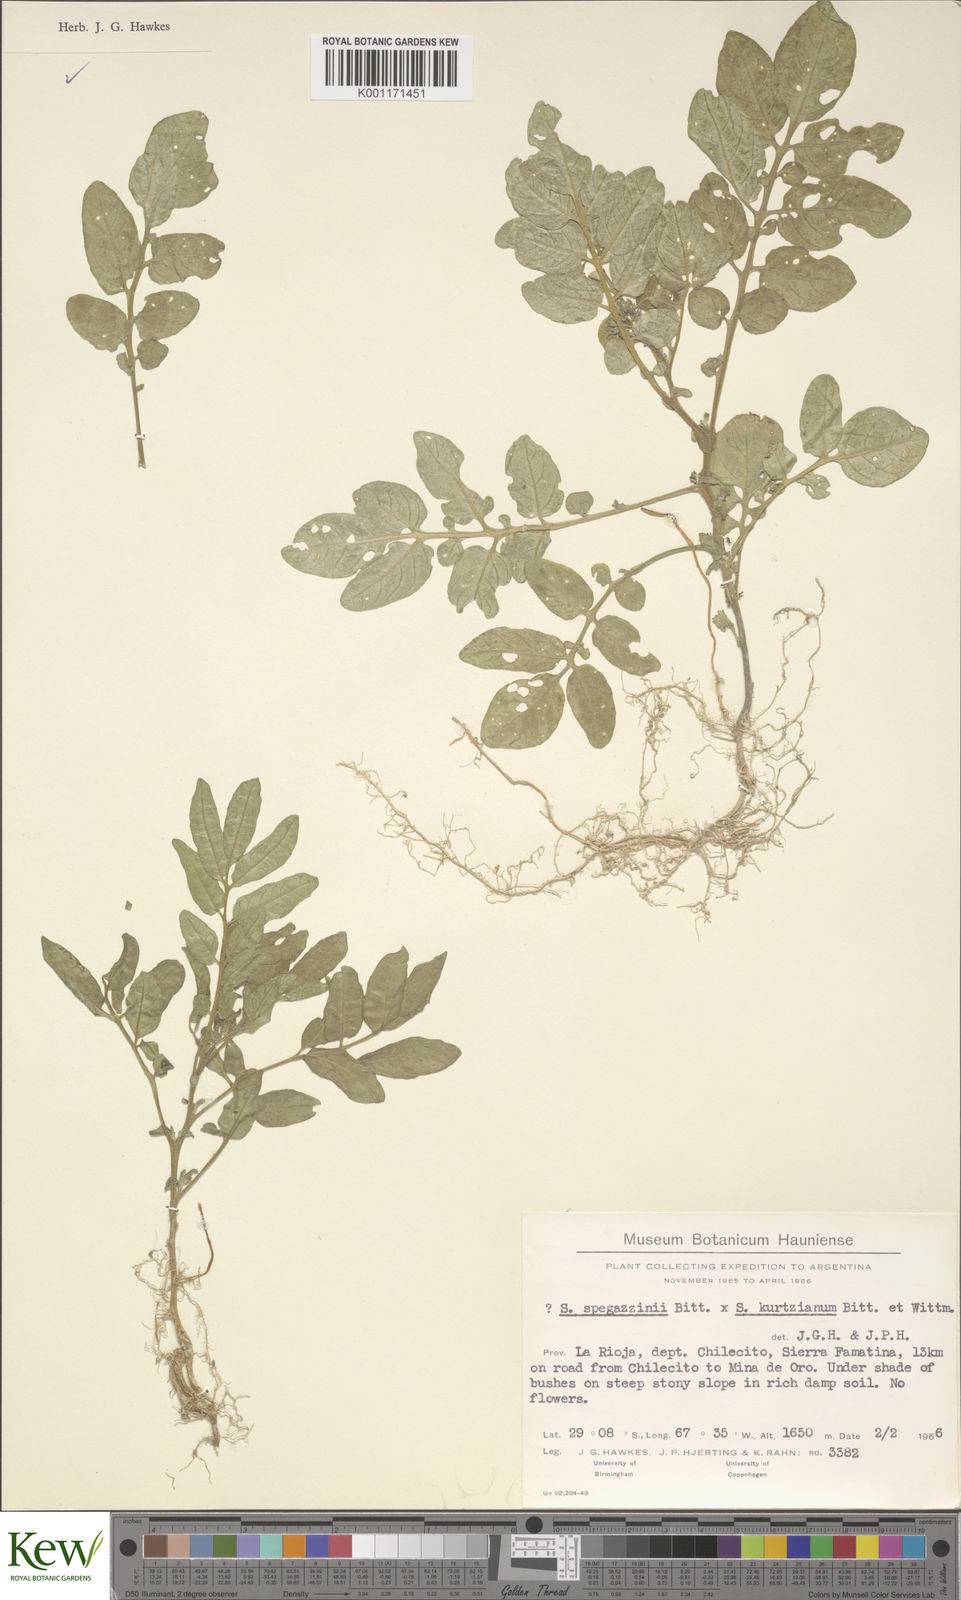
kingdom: Plantae
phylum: Tracheophyta
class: Magnoliopsida
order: Solanales
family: Solanaceae
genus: Solanum
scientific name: Solanum brevicaule
